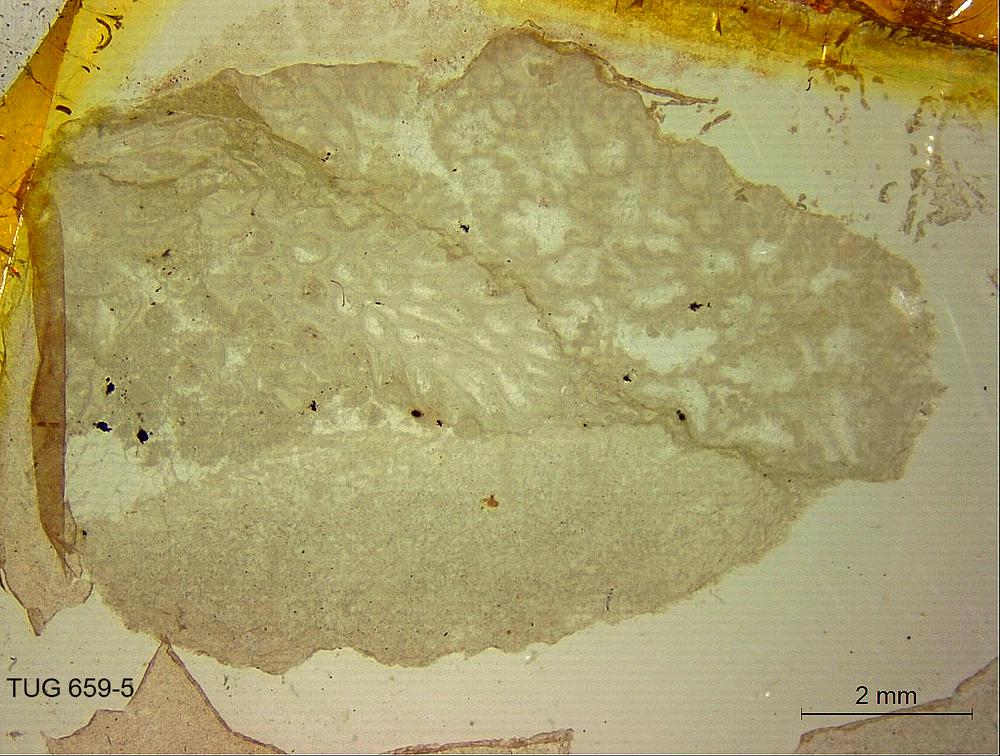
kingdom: Animalia
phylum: Porifera
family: Stromatoporidae
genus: Stromatopora
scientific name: Stromatopora
